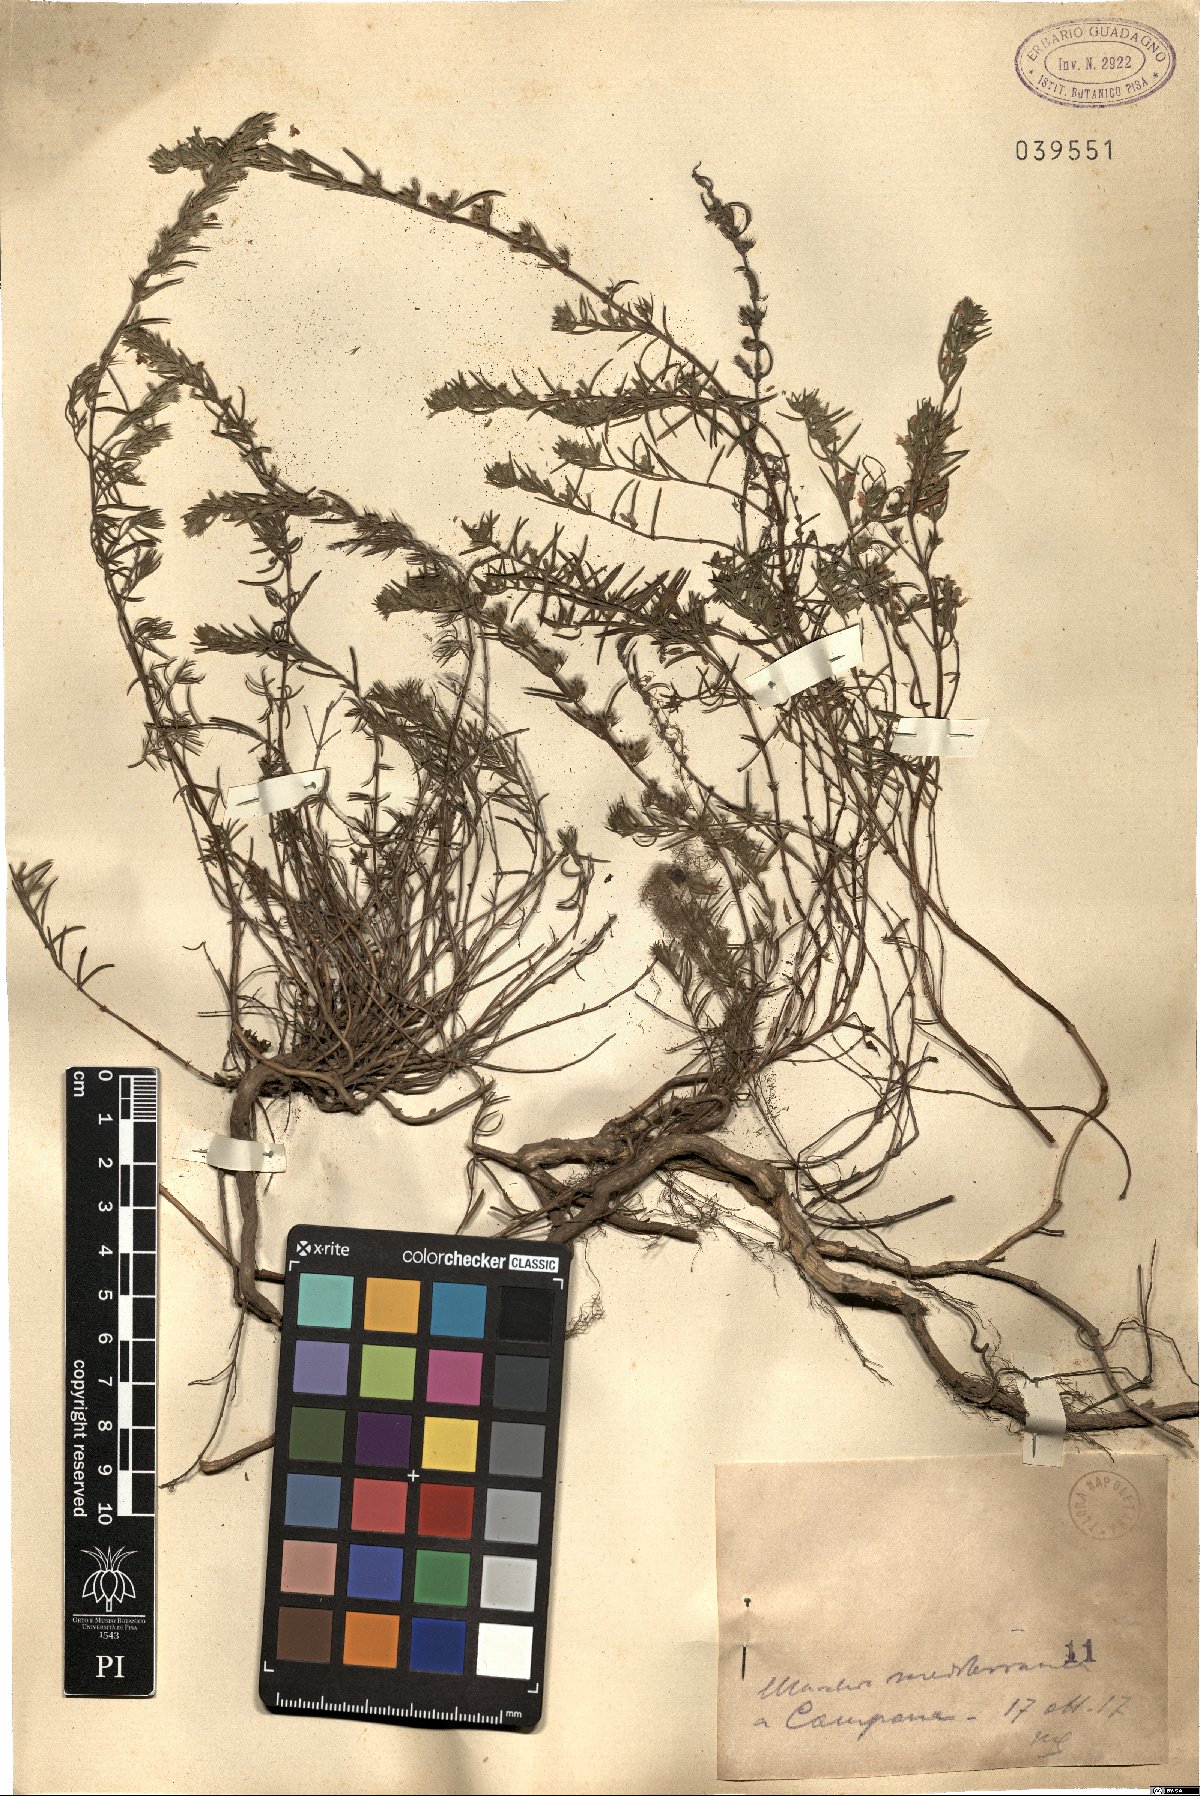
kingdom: Plantae
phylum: Tracheophyta
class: Magnoliopsida
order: Lamiales
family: Lamiaceae
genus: Micromeria
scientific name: Micromeria
